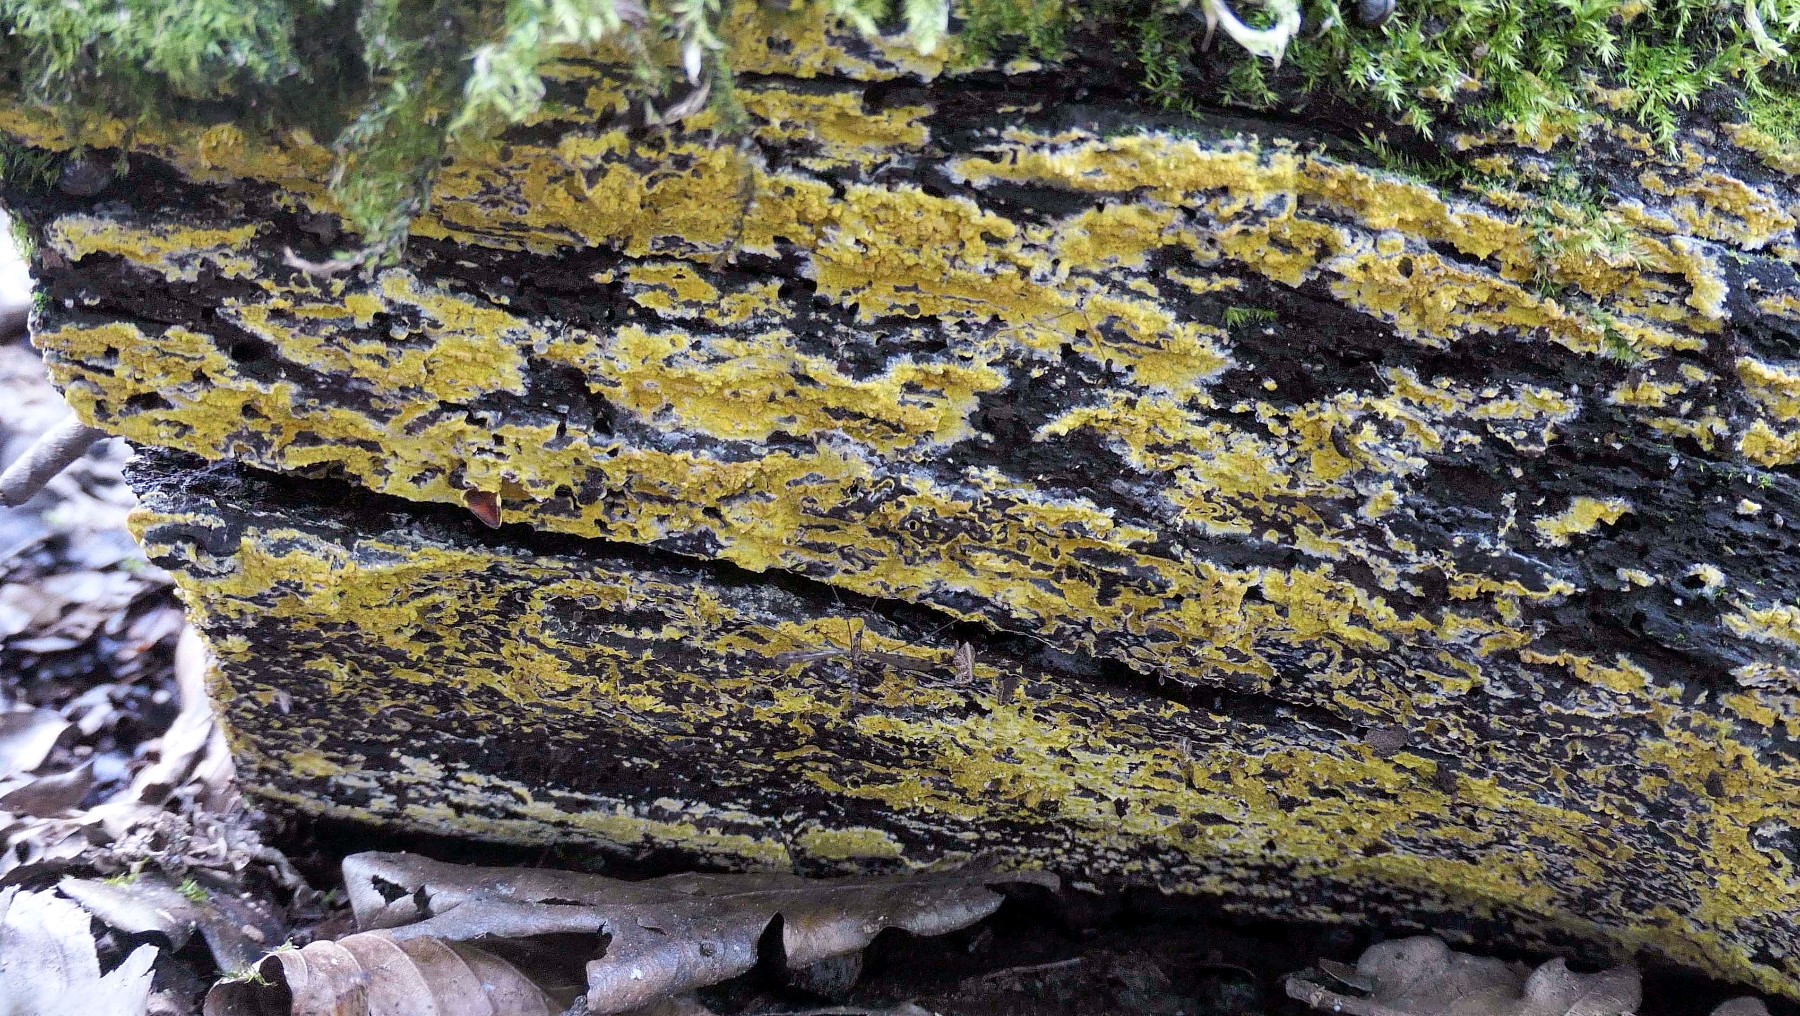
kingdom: Fungi
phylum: Basidiomycota
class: Agaricomycetes
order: Polyporales
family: Meruliaceae
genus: Phlebiodontia
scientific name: Phlebiodontia subochracea
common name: svovl-åresvamp
